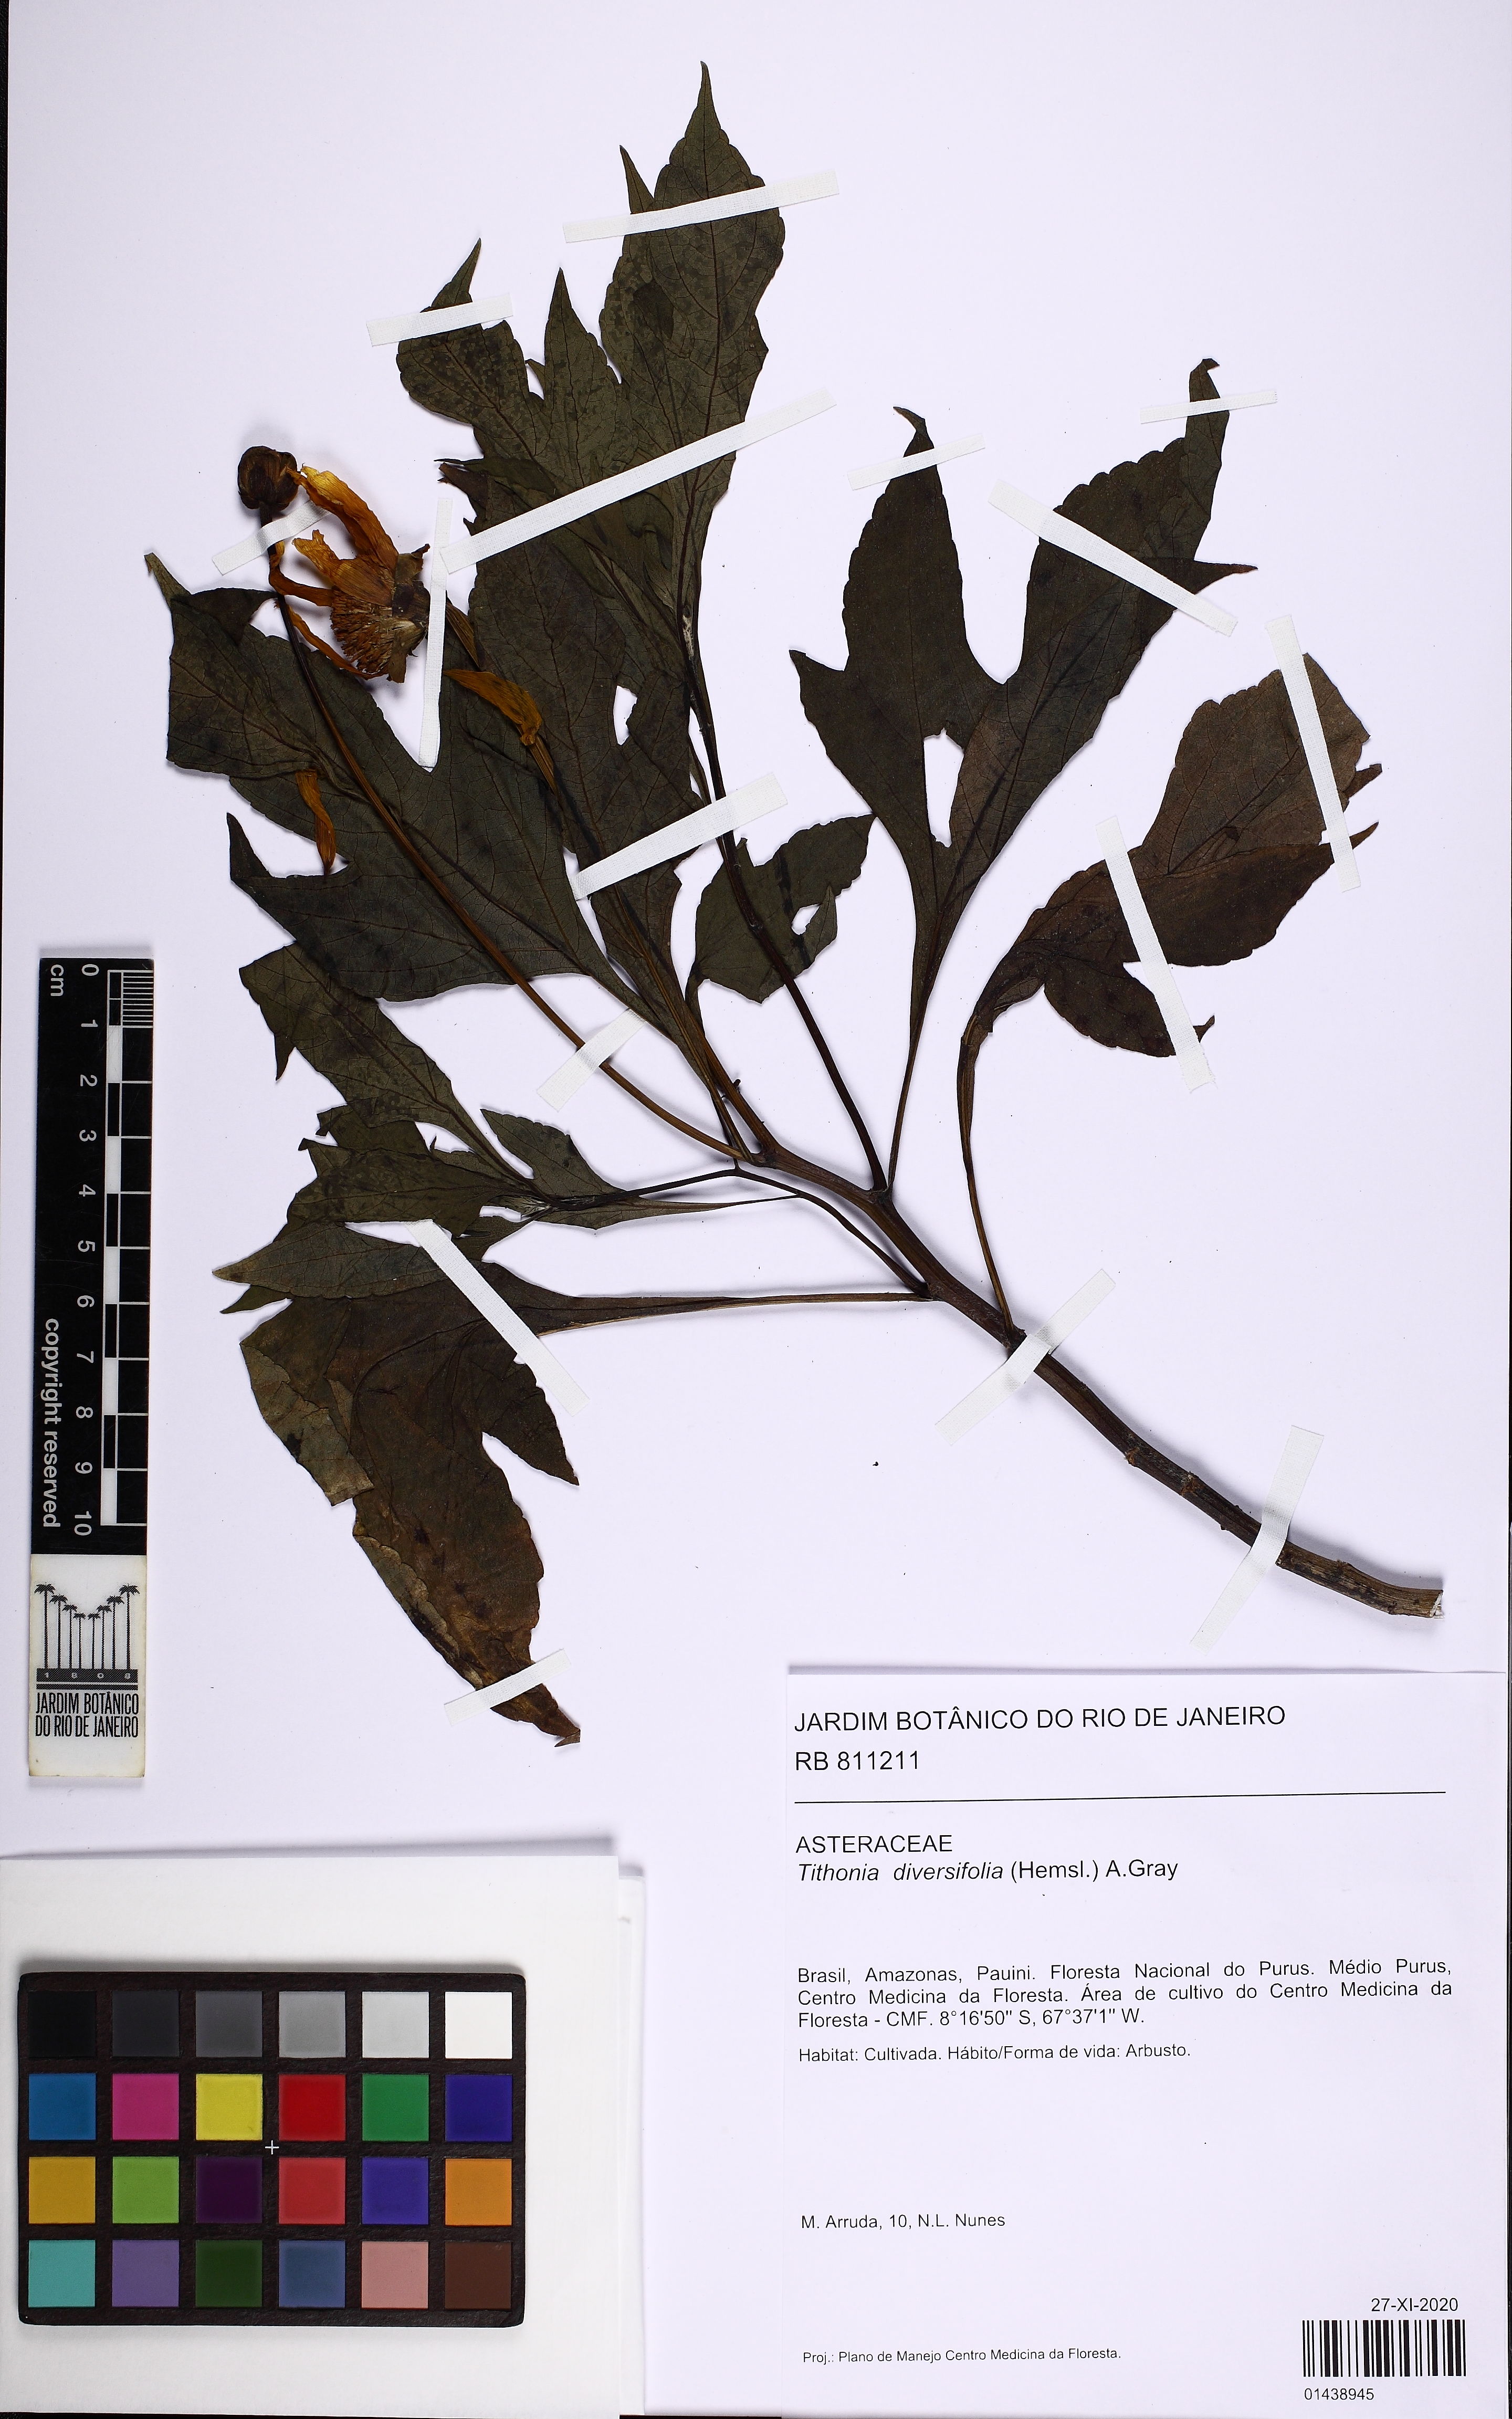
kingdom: Plantae
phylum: Tracheophyta
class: Magnoliopsida
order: Asterales
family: Asteraceae
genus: Tithonia
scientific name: Tithonia diversifolia
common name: Tree marigold
